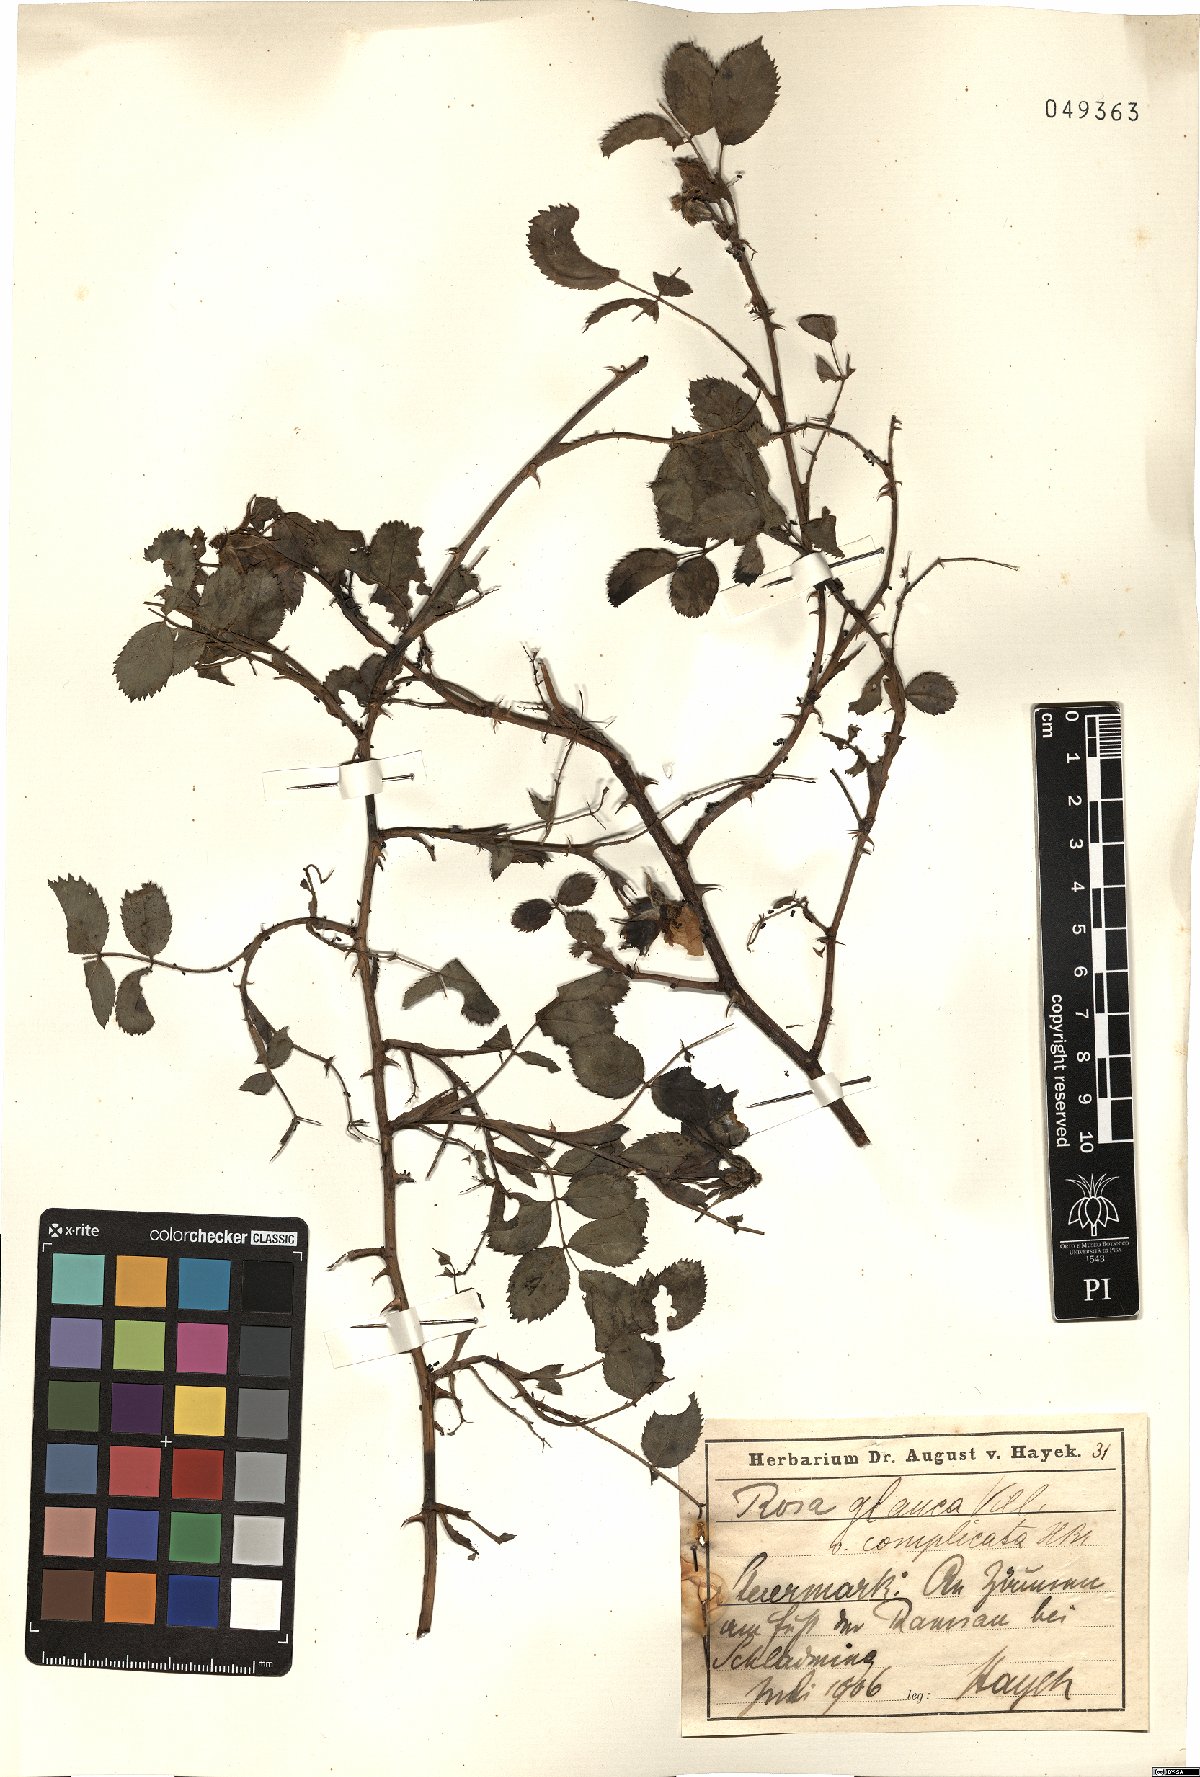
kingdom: Plantae
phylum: Tracheophyta
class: Magnoliopsida
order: Rosales
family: Rosaceae
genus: Rosa
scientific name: Rosa
